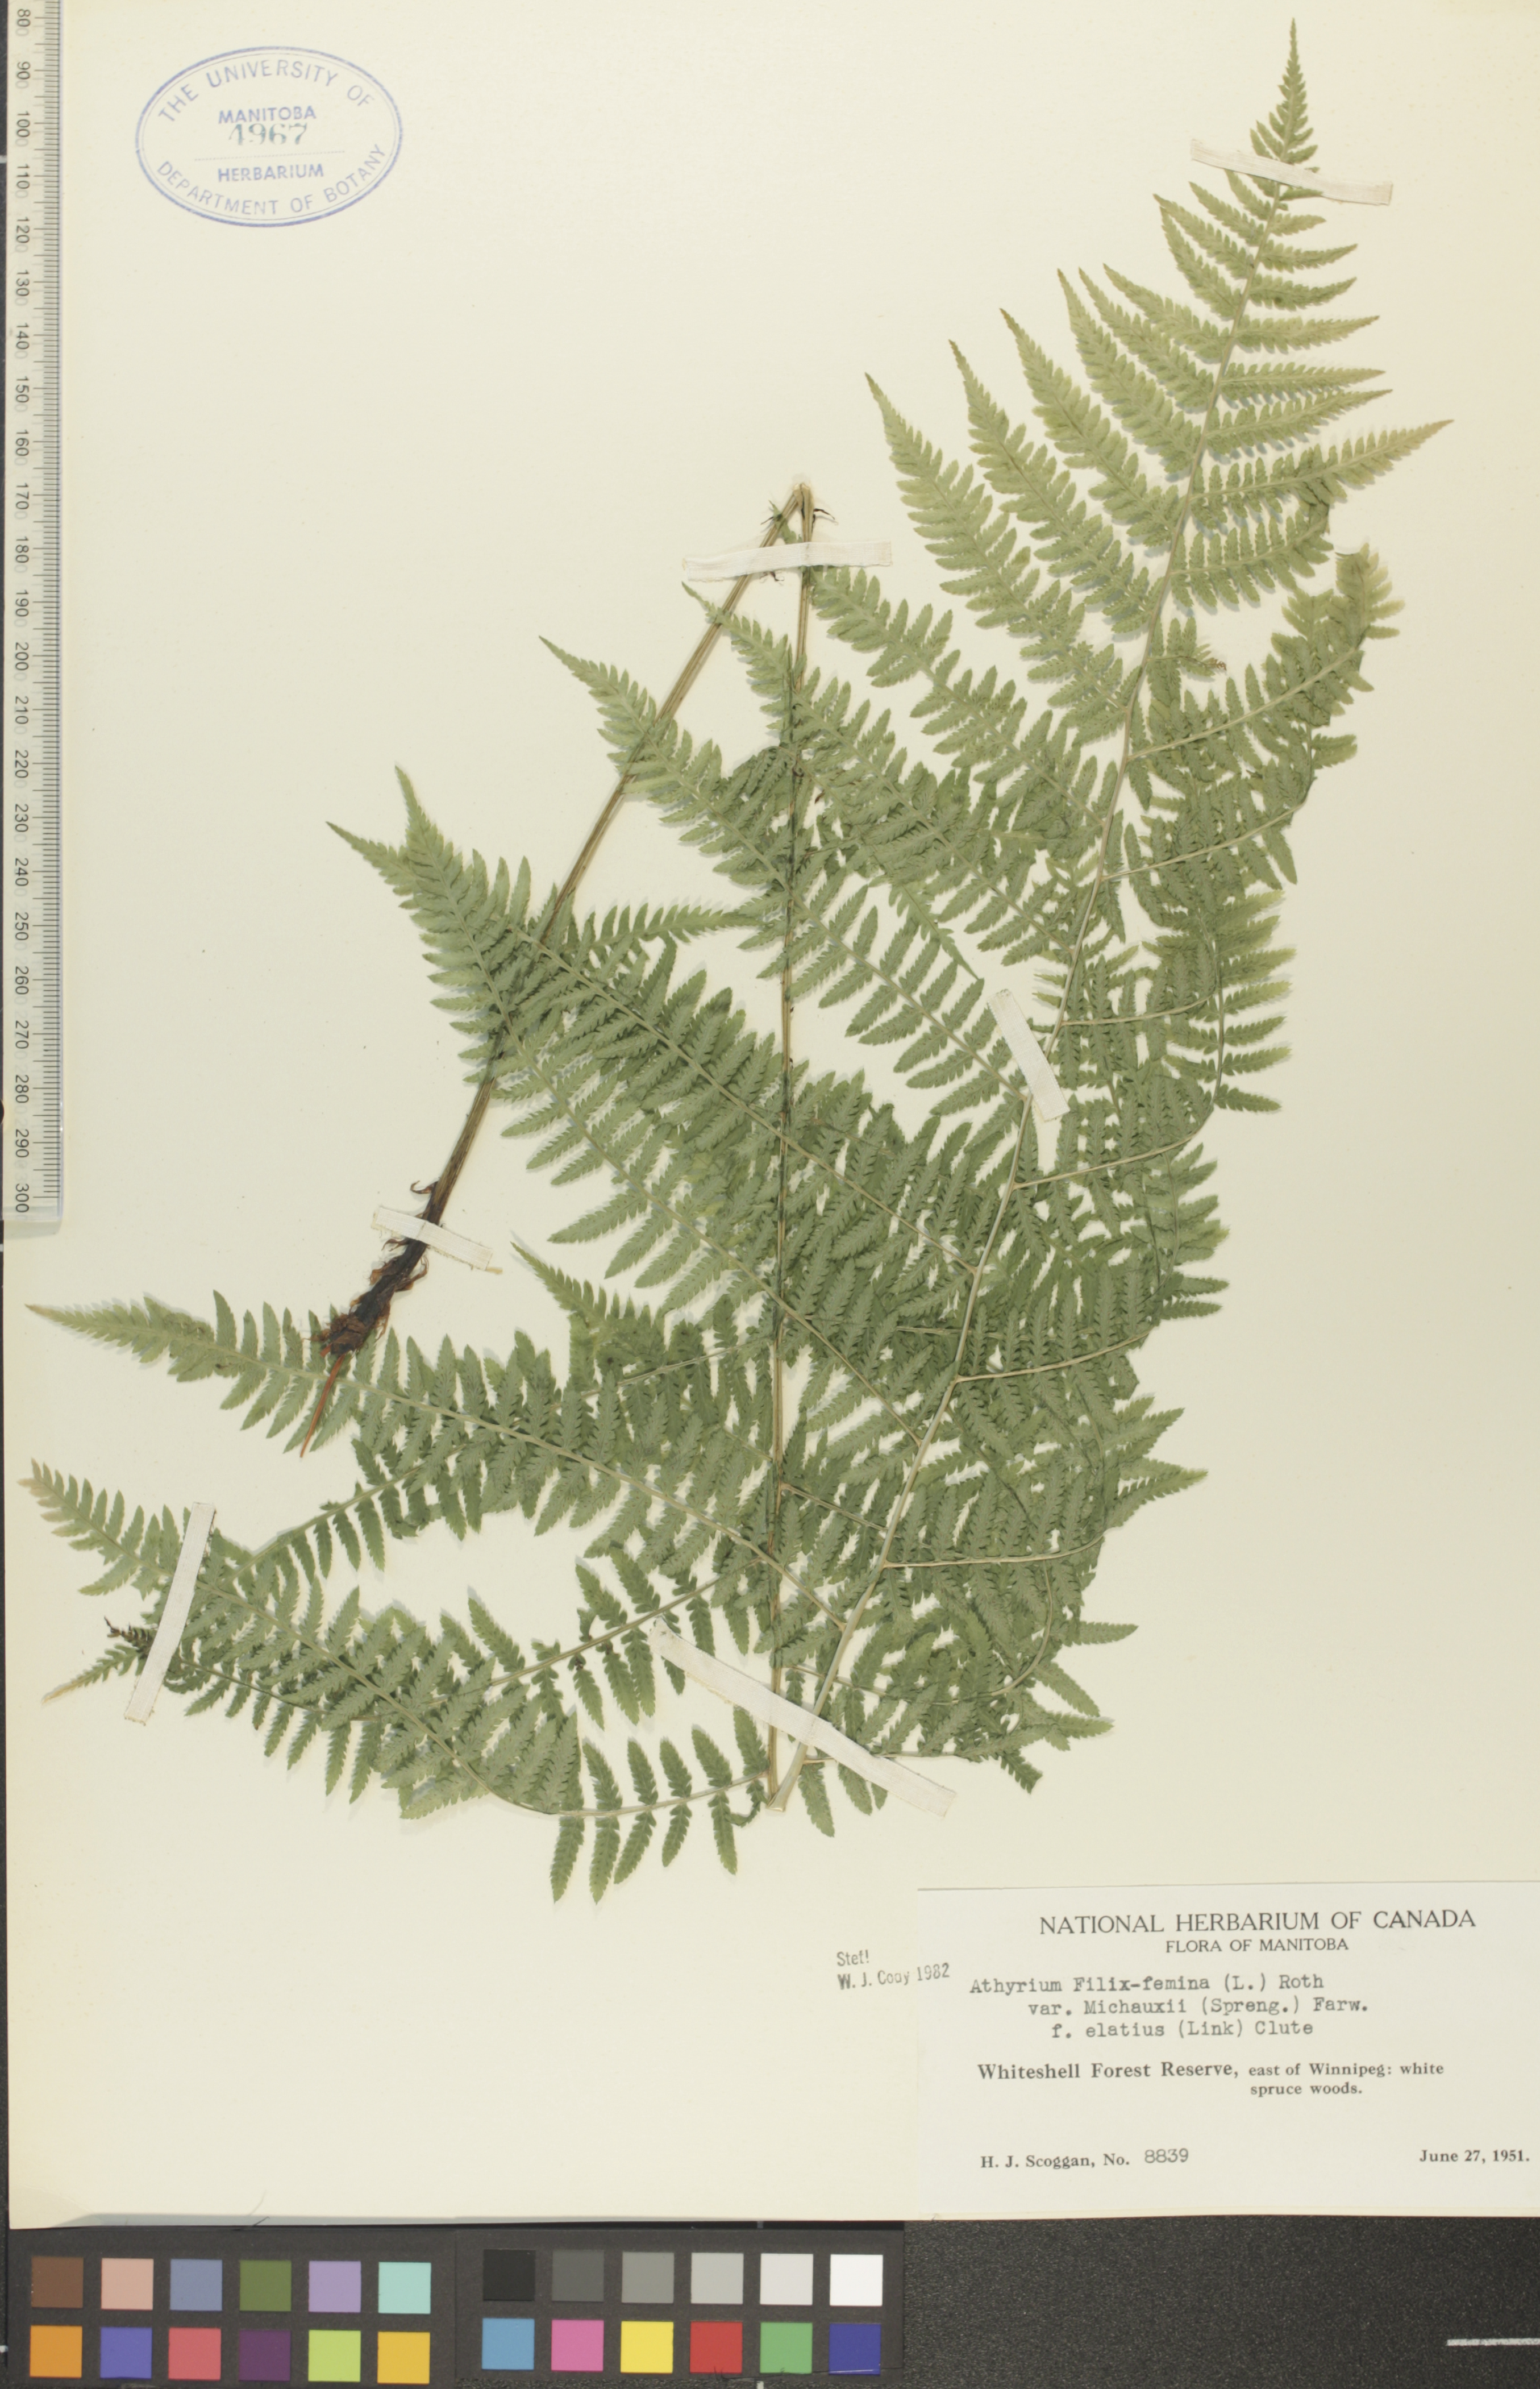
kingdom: Plantae
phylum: Tracheophyta
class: Polypodiopsida
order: Polypodiales
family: Athyriaceae
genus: Athyrium
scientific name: Athyrium angustum
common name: Northern lady fern
